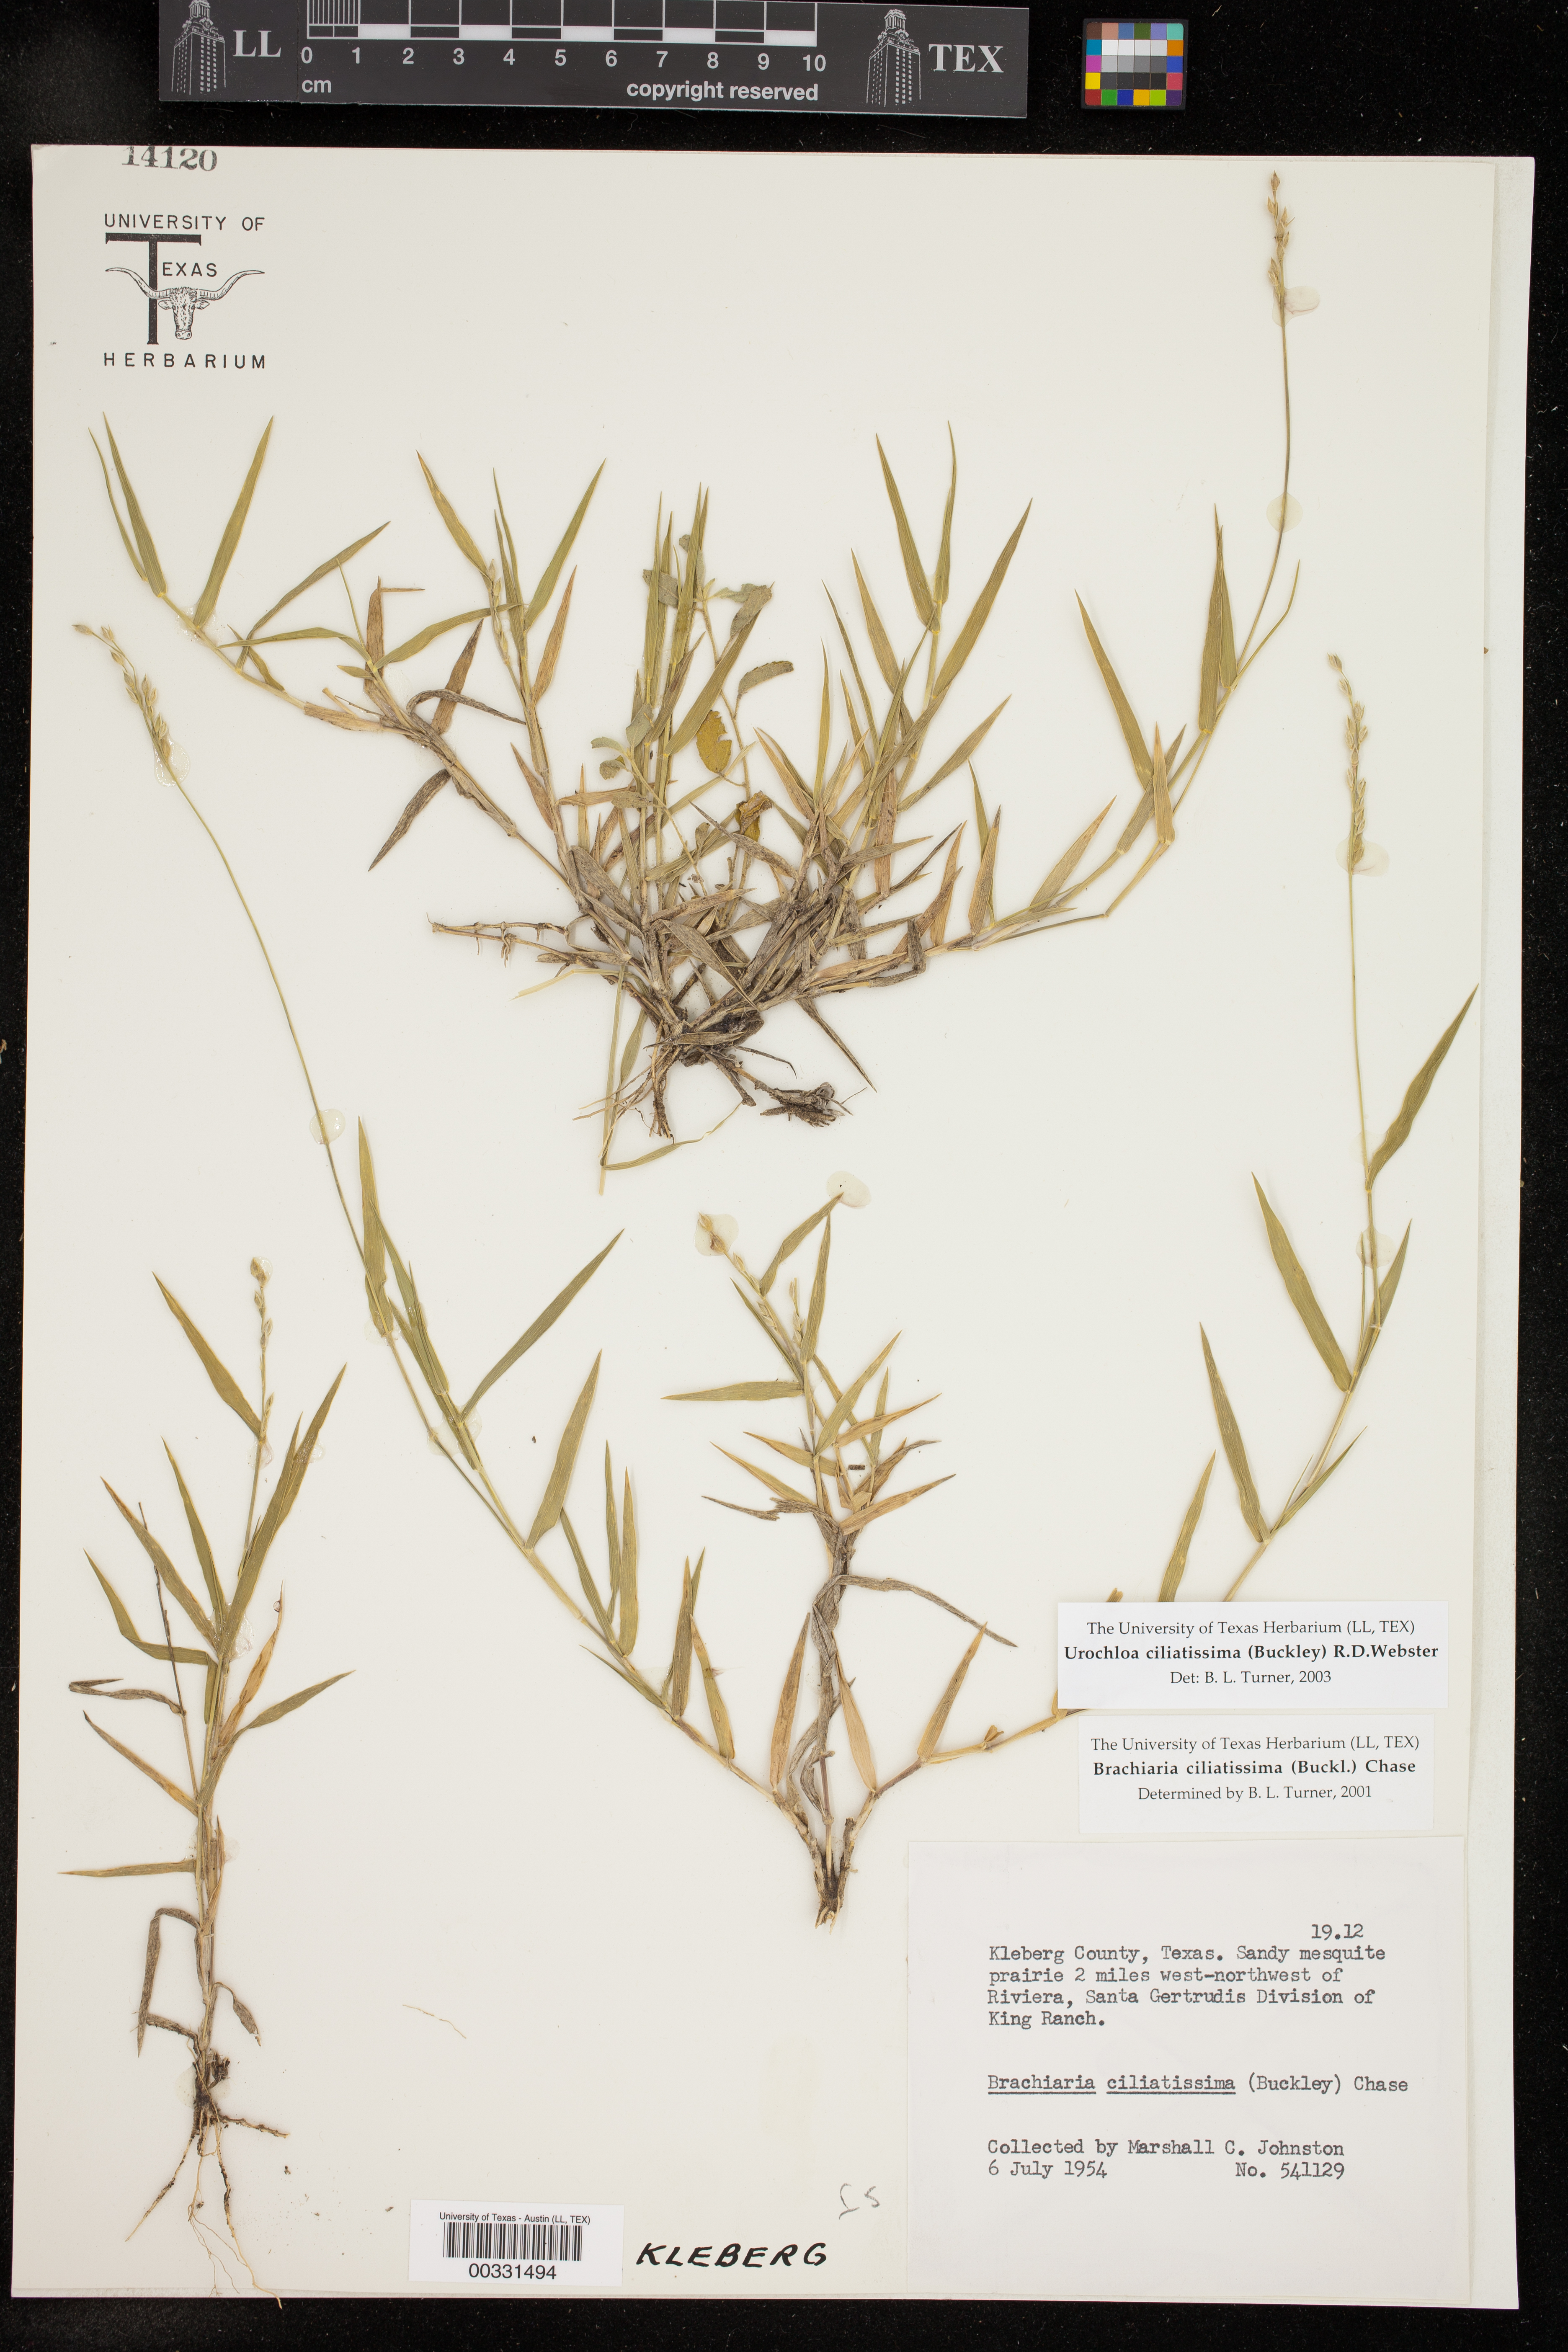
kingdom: Plantae
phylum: Tracheophyta
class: Liliopsida
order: Poales
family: Poaceae
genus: Urochloa
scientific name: Urochloa ciliatissima
